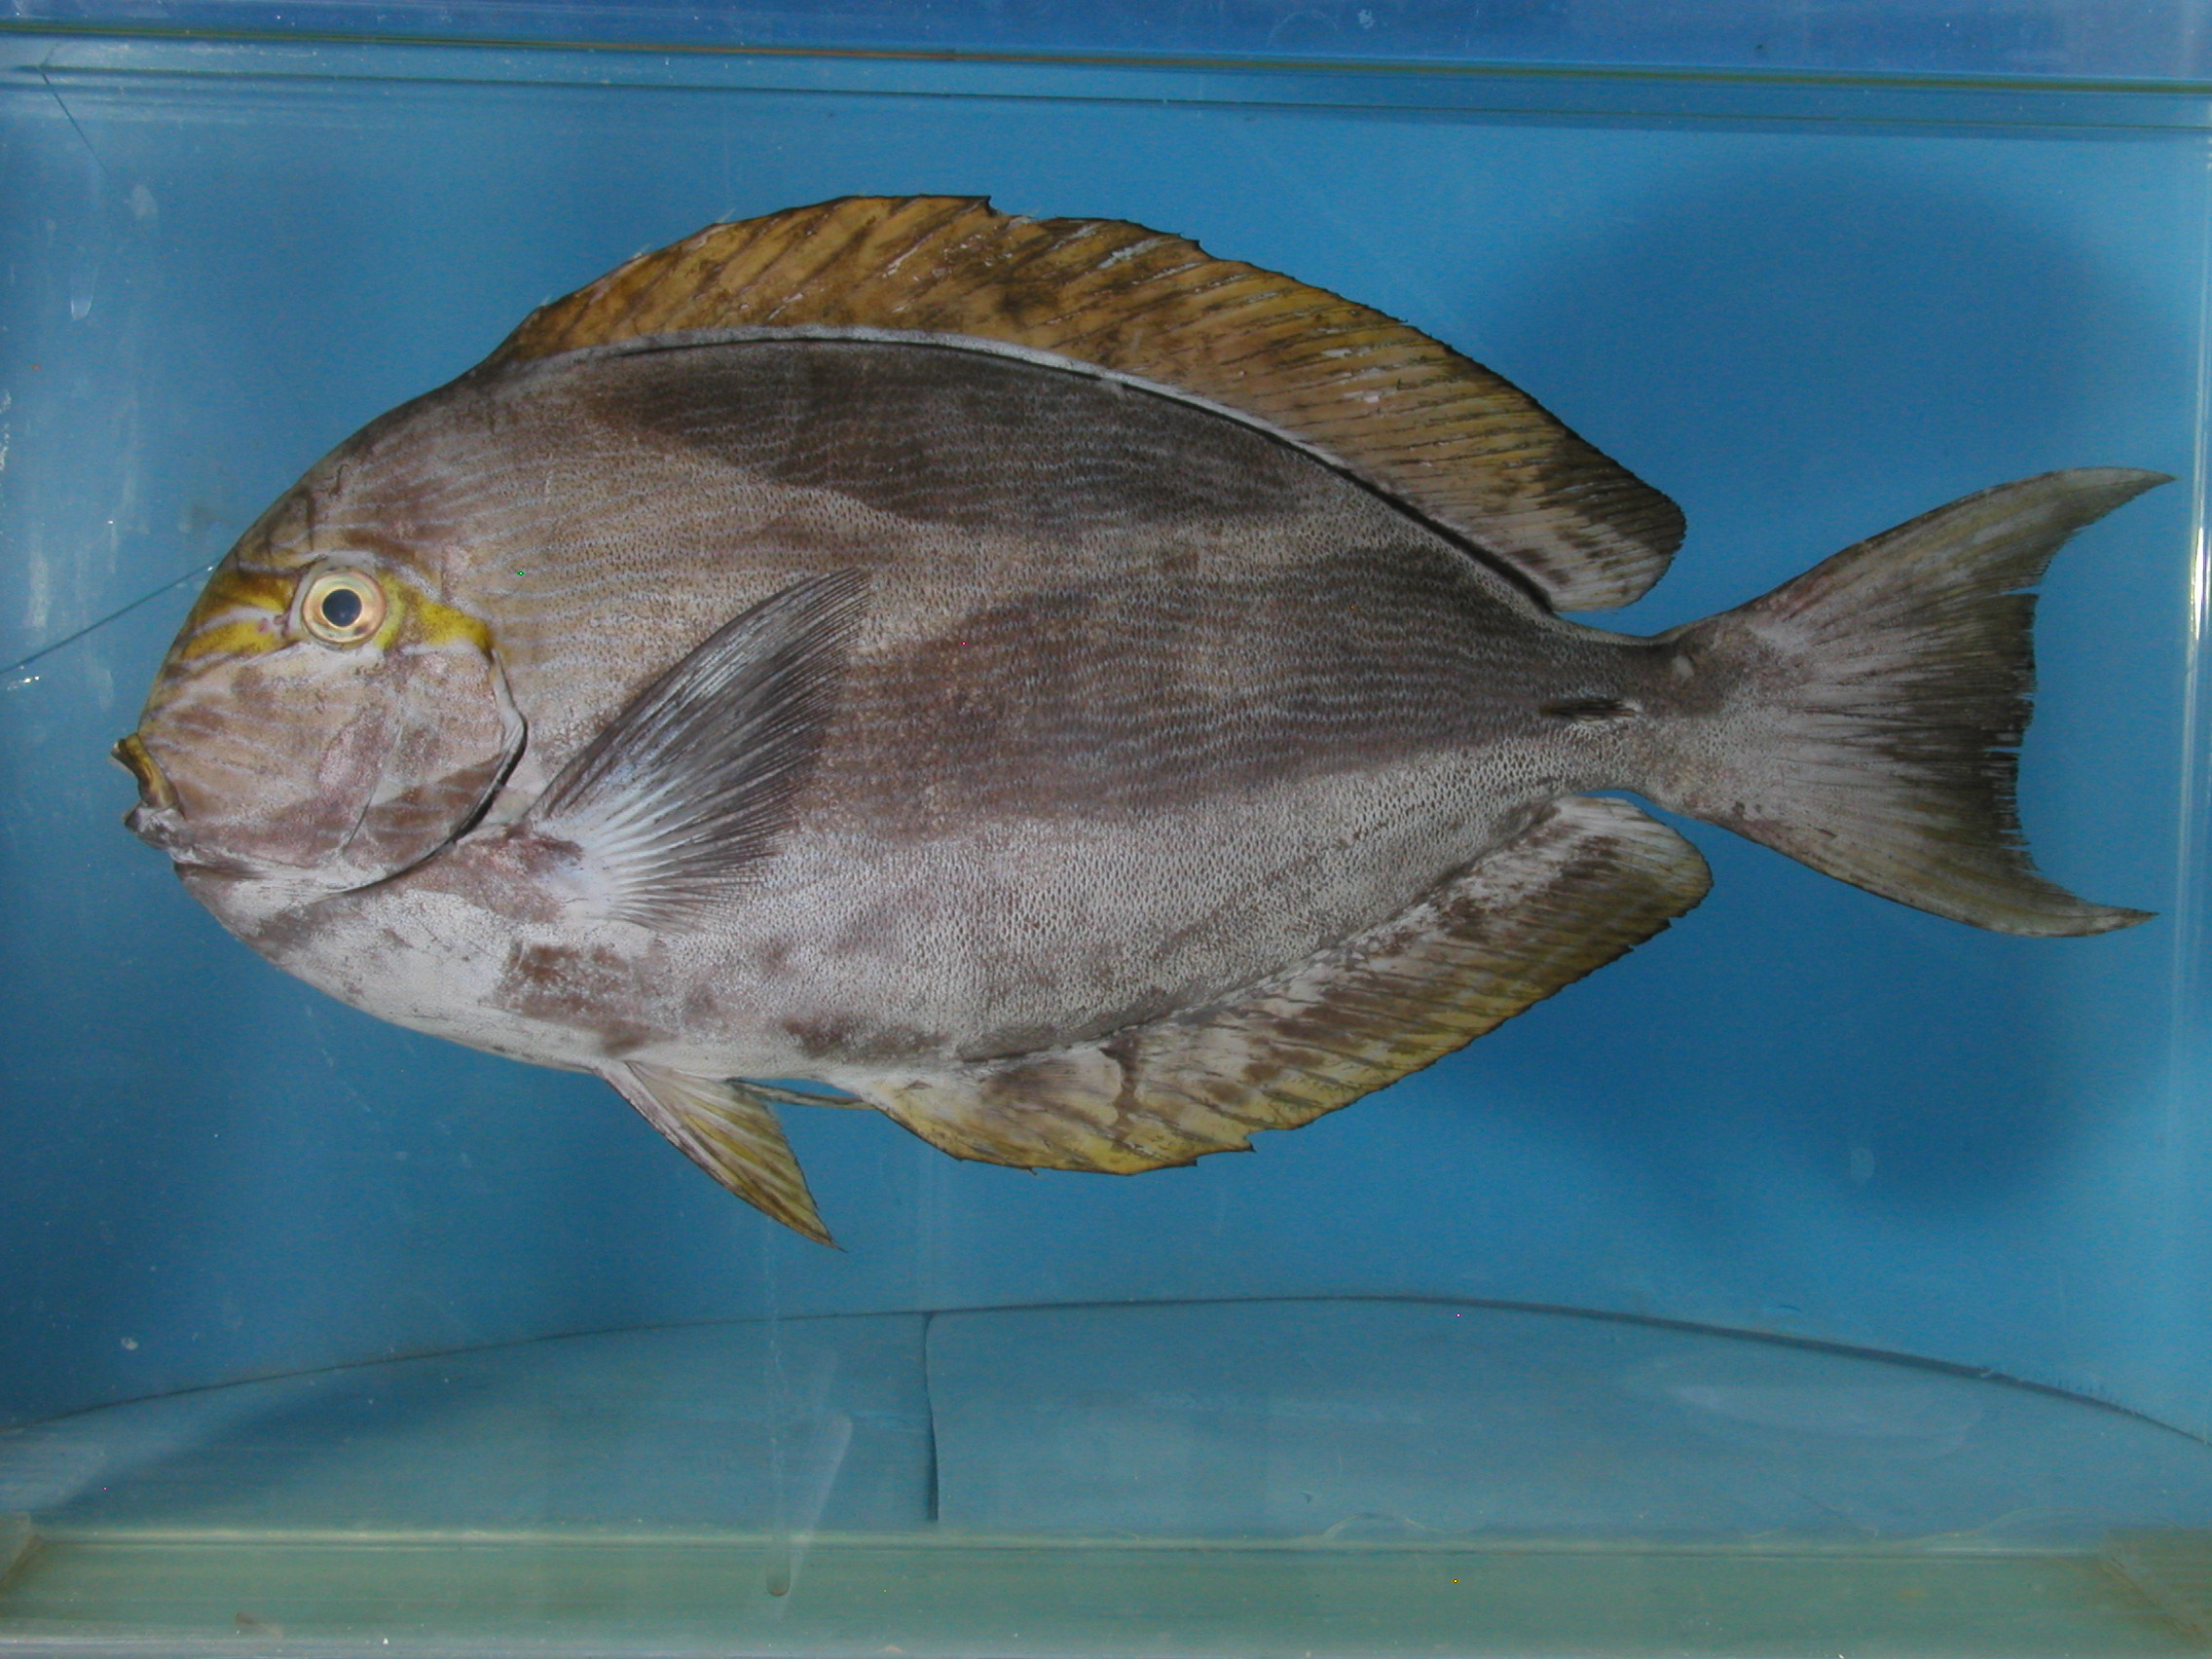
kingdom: Animalia
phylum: Chordata
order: Perciformes
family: Acanthuridae
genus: Acanthurus
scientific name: Acanthurus mata
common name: Bleeker's surgeonfish
